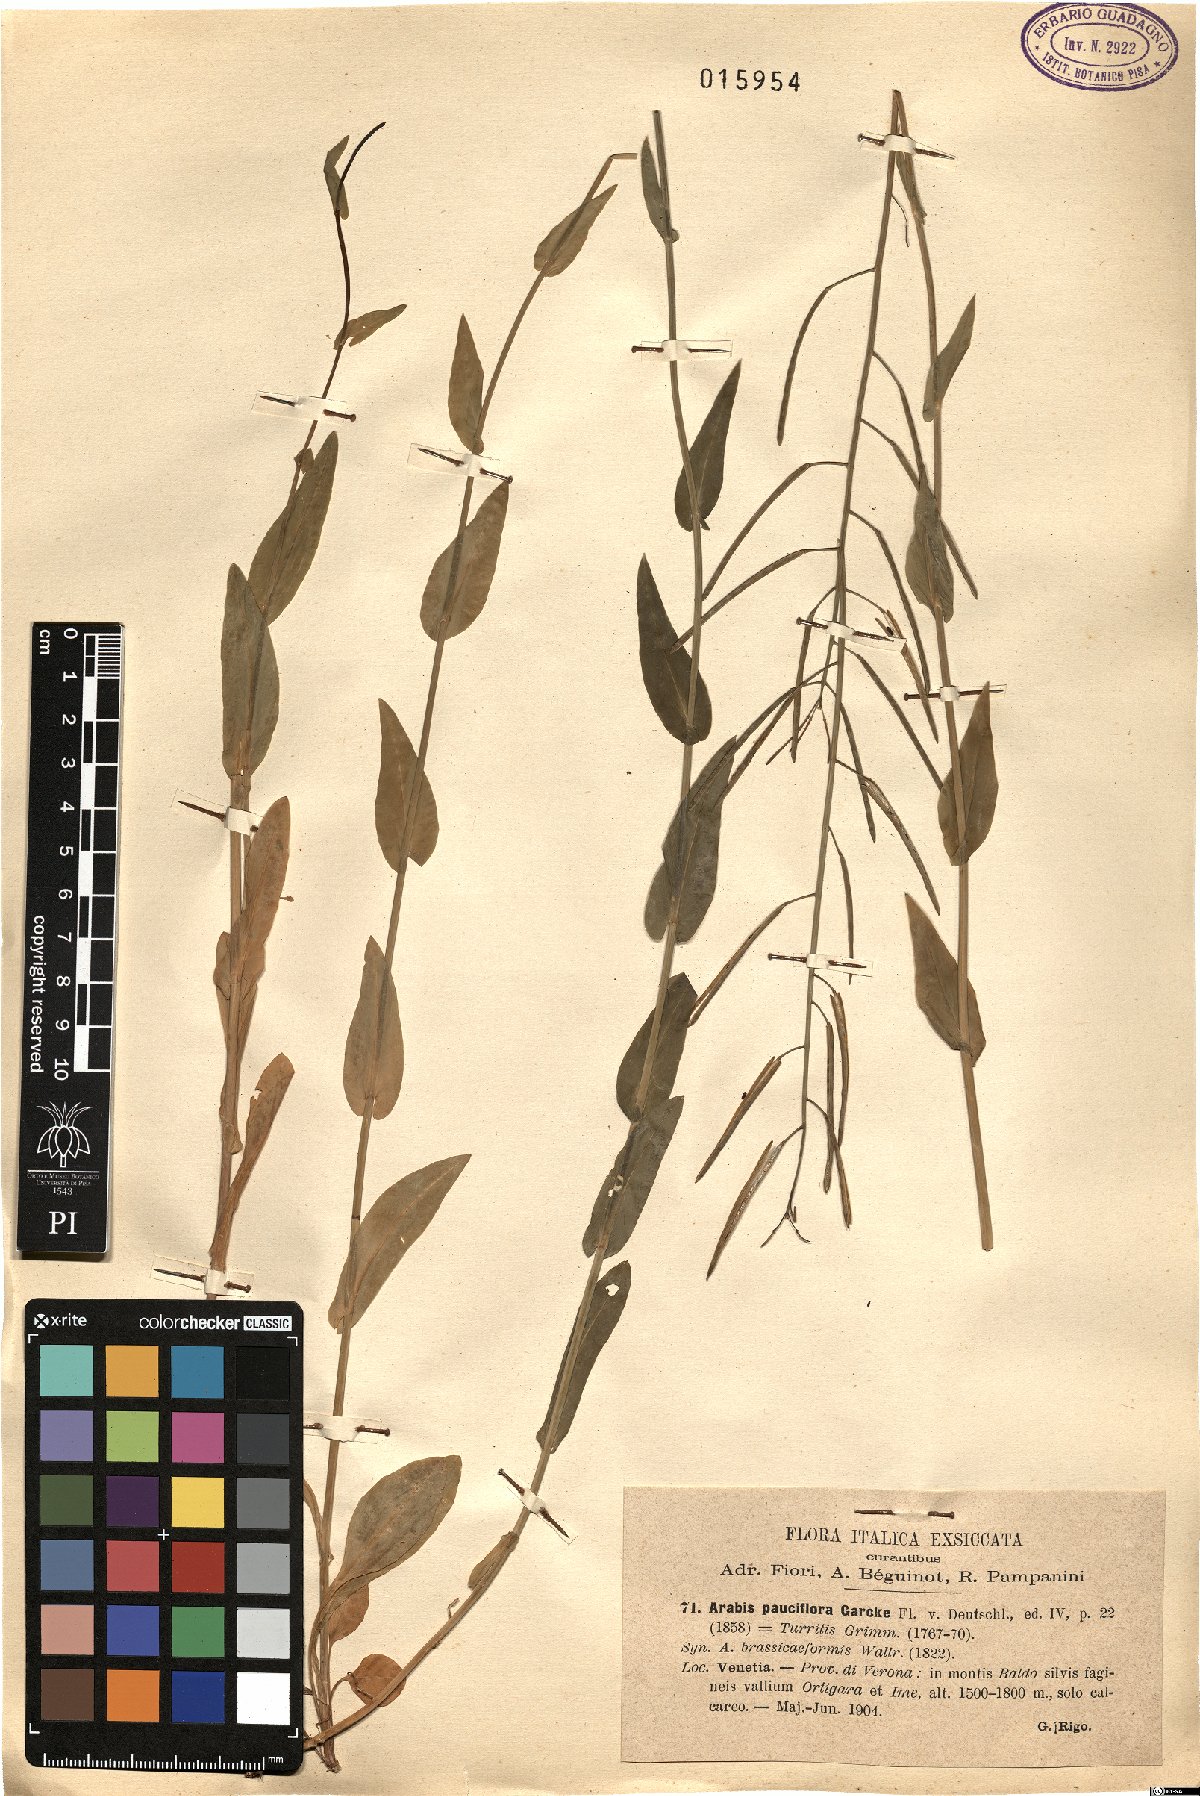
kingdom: Plantae
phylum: Tracheophyta
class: Magnoliopsida
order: Brassicales
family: Brassicaceae
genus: Fourraea
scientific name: Fourraea alpina
